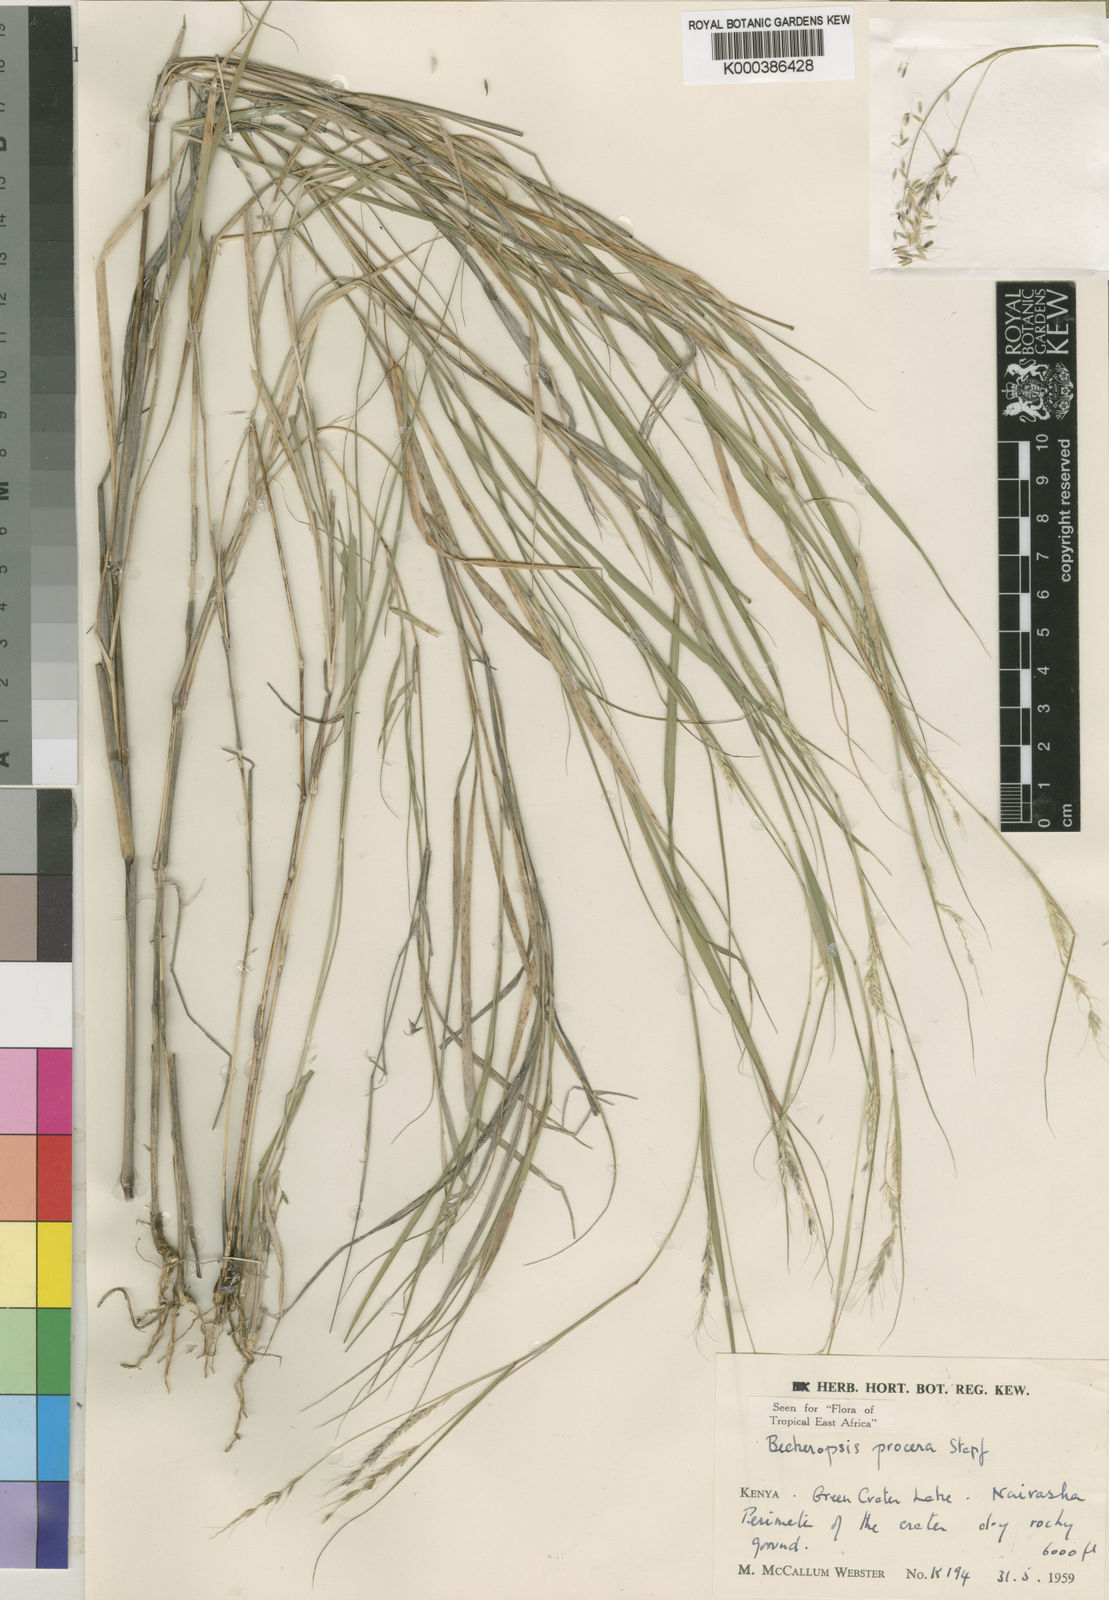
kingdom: Plantae
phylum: Tracheophyta
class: Liliopsida
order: Poales
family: Poaceae
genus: Cenchrus
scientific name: Cenchrus procerus
